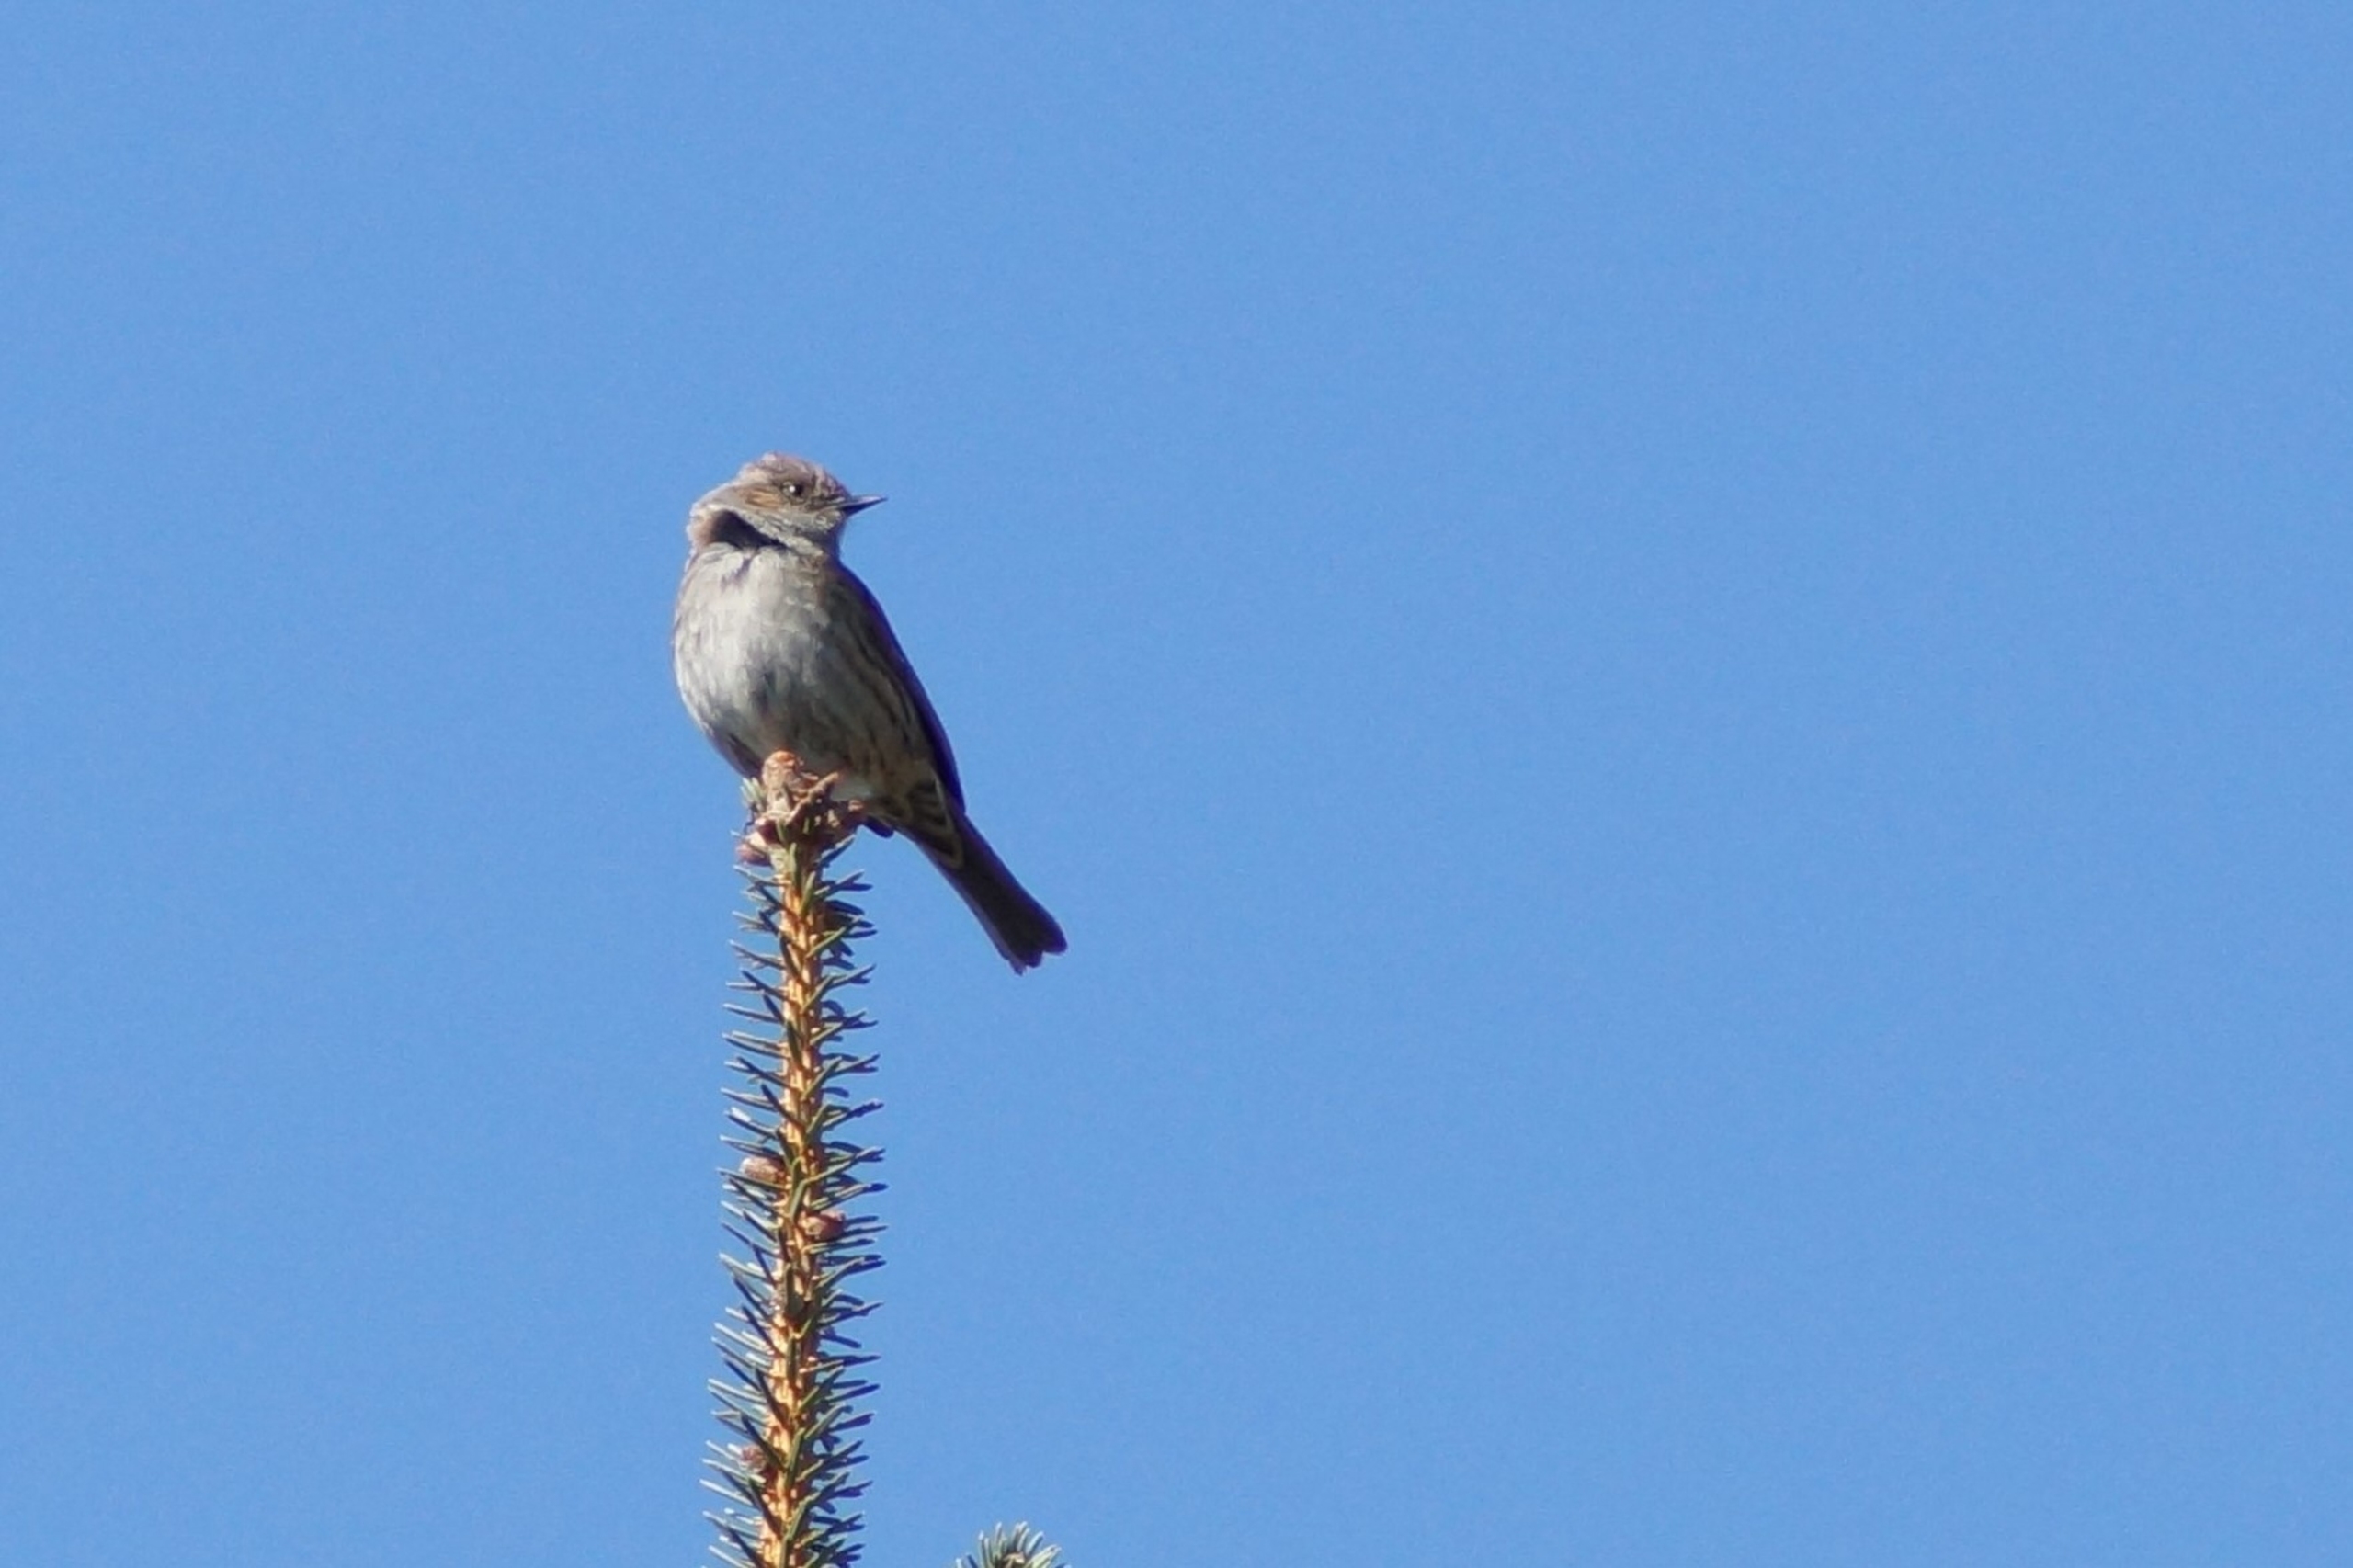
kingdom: Animalia
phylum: Chordata
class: Aves
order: Passeriformes
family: Prunellidae
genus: Prunella
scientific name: Prunella modularis
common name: Jernspurv
